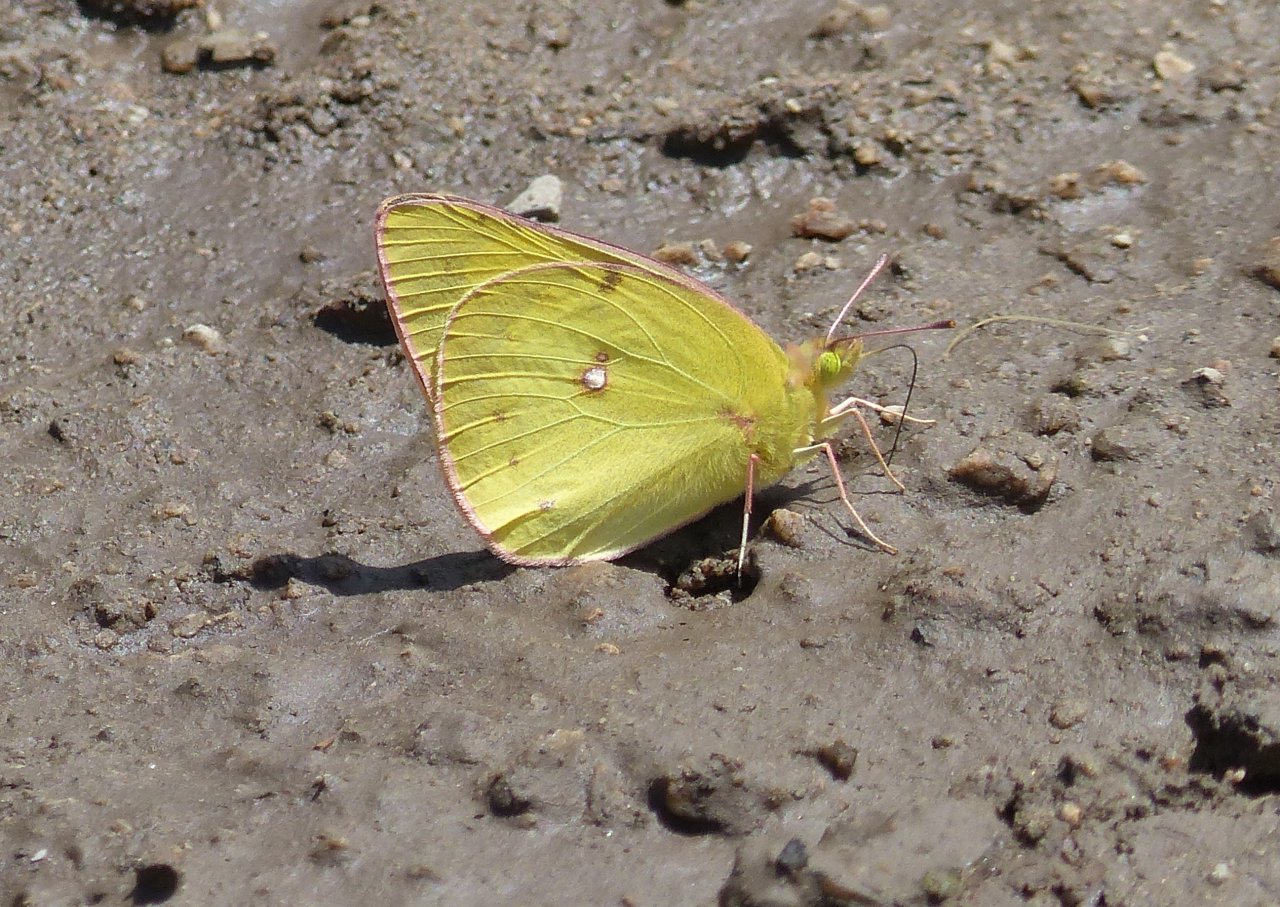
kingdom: Animalia
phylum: Arthropoda
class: Insecta
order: Lepidoptera
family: Pieridae
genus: Colias
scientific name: Colias philodice
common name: Clouded Sulphur
